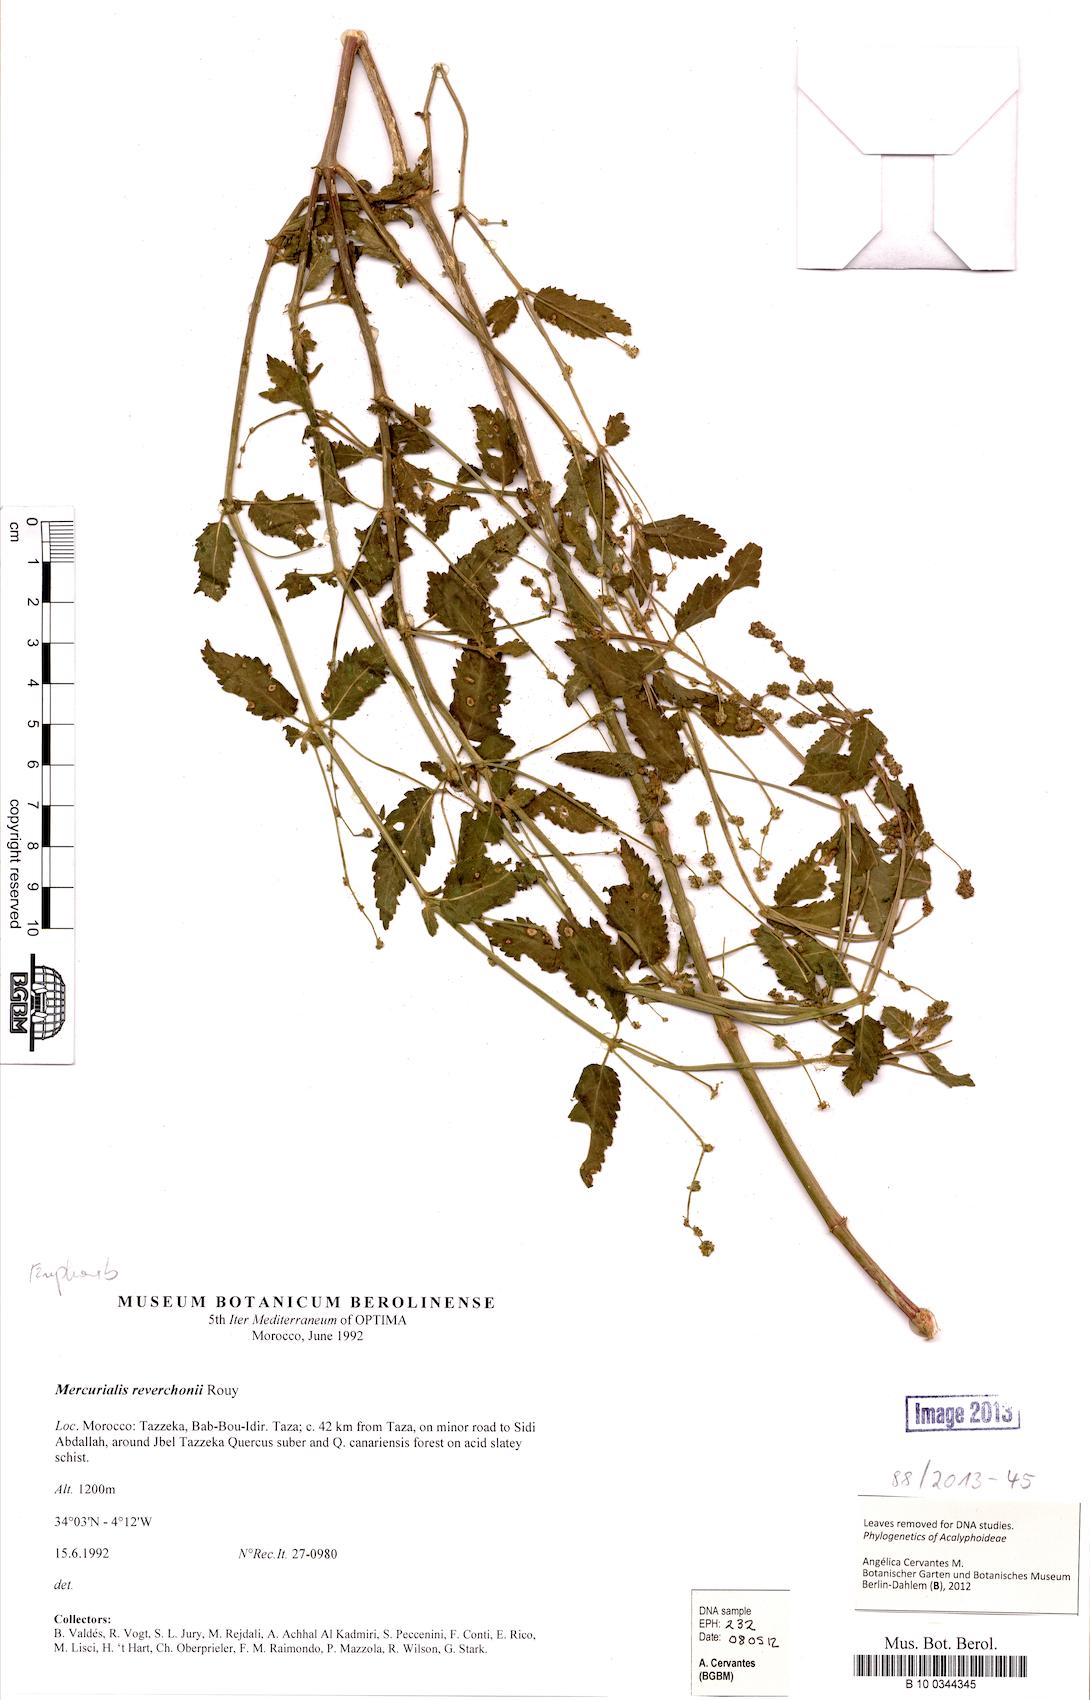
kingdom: Plantae
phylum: Tracheophyta
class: Magnoliopsida
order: Malpighiales
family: Euphorbiaceae
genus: Mercurialis
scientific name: Mercurialis reverchonii
